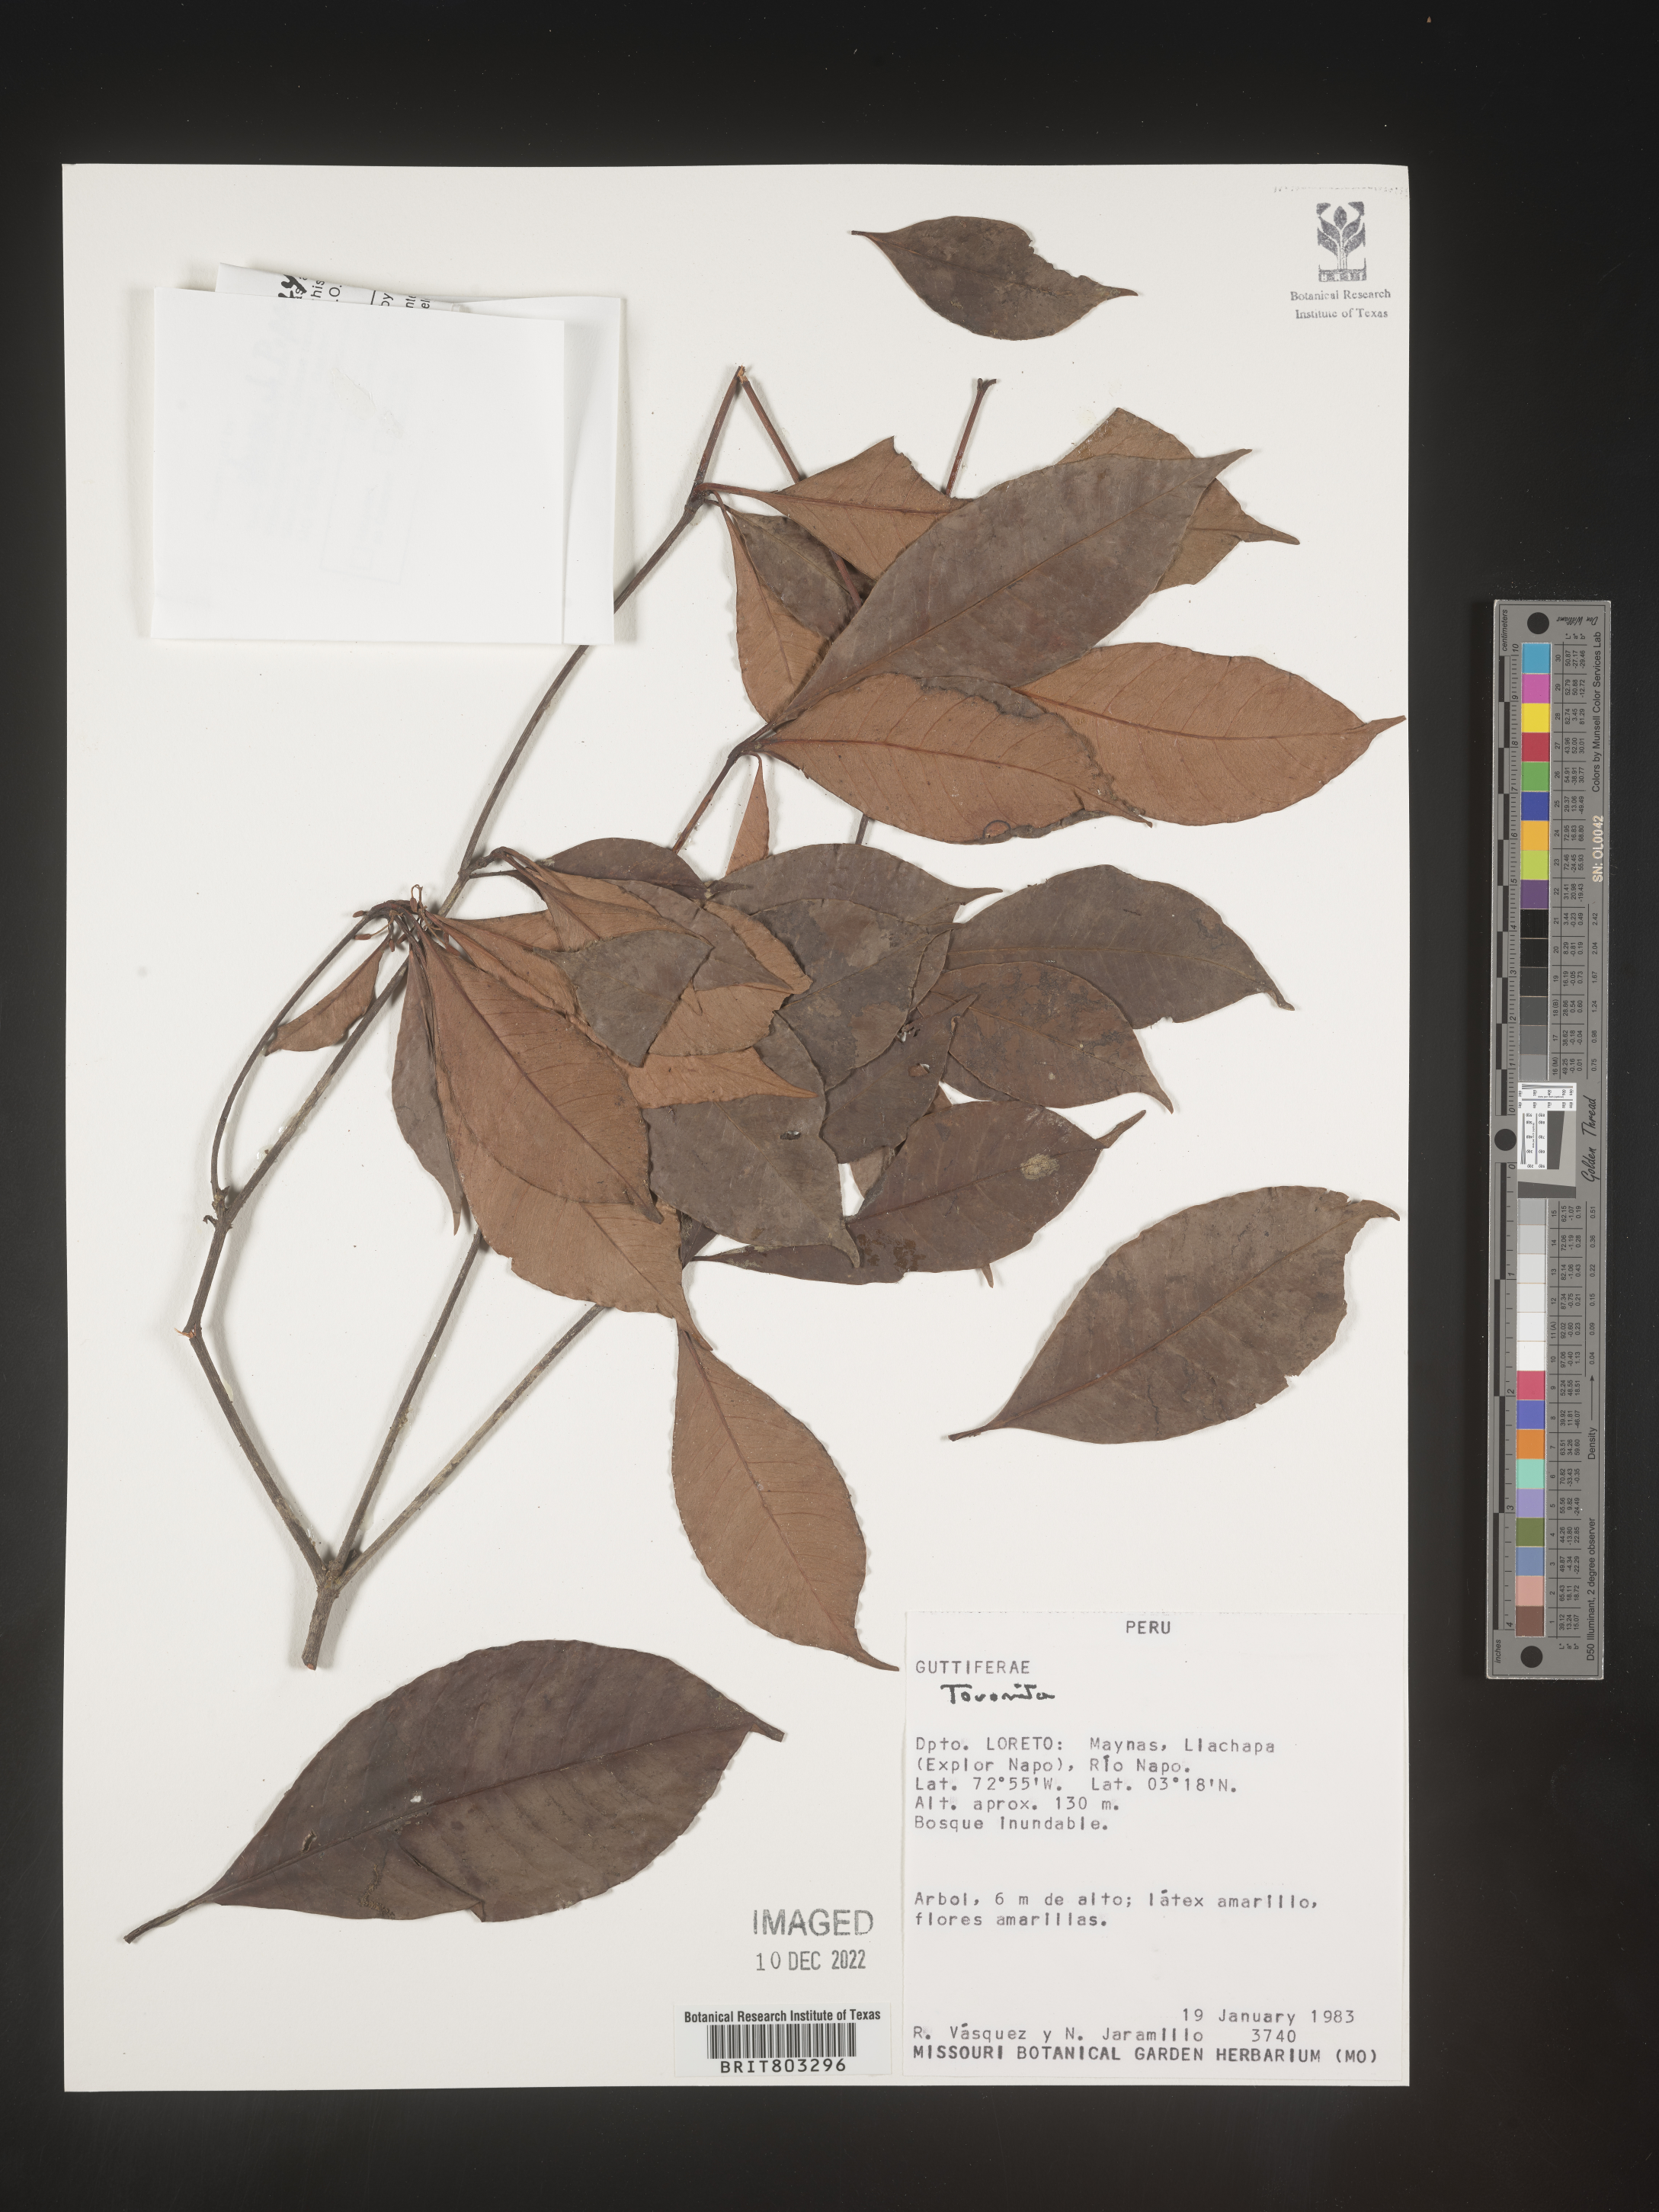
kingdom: Plantae
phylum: Tracheophyta
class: Magnoliopsida
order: Malpighiales
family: Clusiaceae
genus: Tovomita
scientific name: Tovomita
